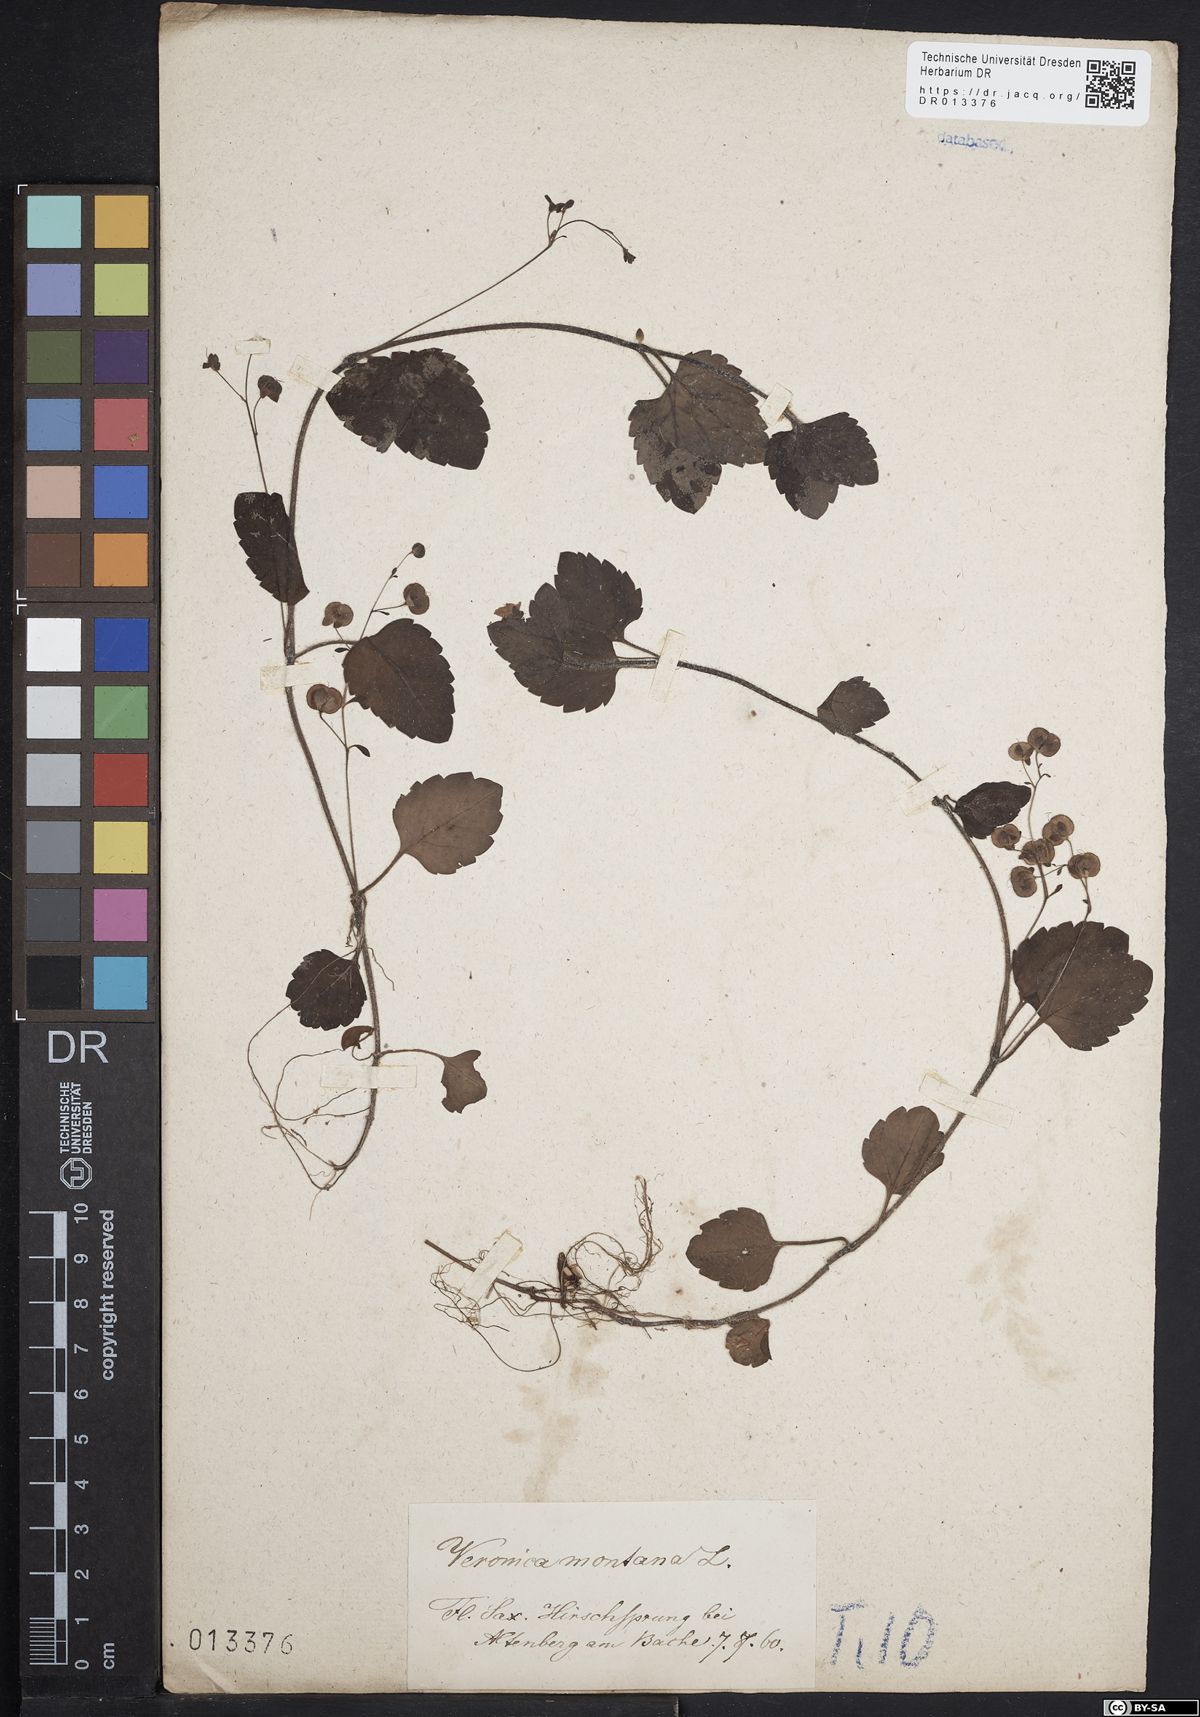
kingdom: Plantae
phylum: Tracheophyta
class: Magnoliopsida
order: Lamiales
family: Plantaginaceae
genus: Veronica
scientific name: Veronica montana
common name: Wood speedwell
